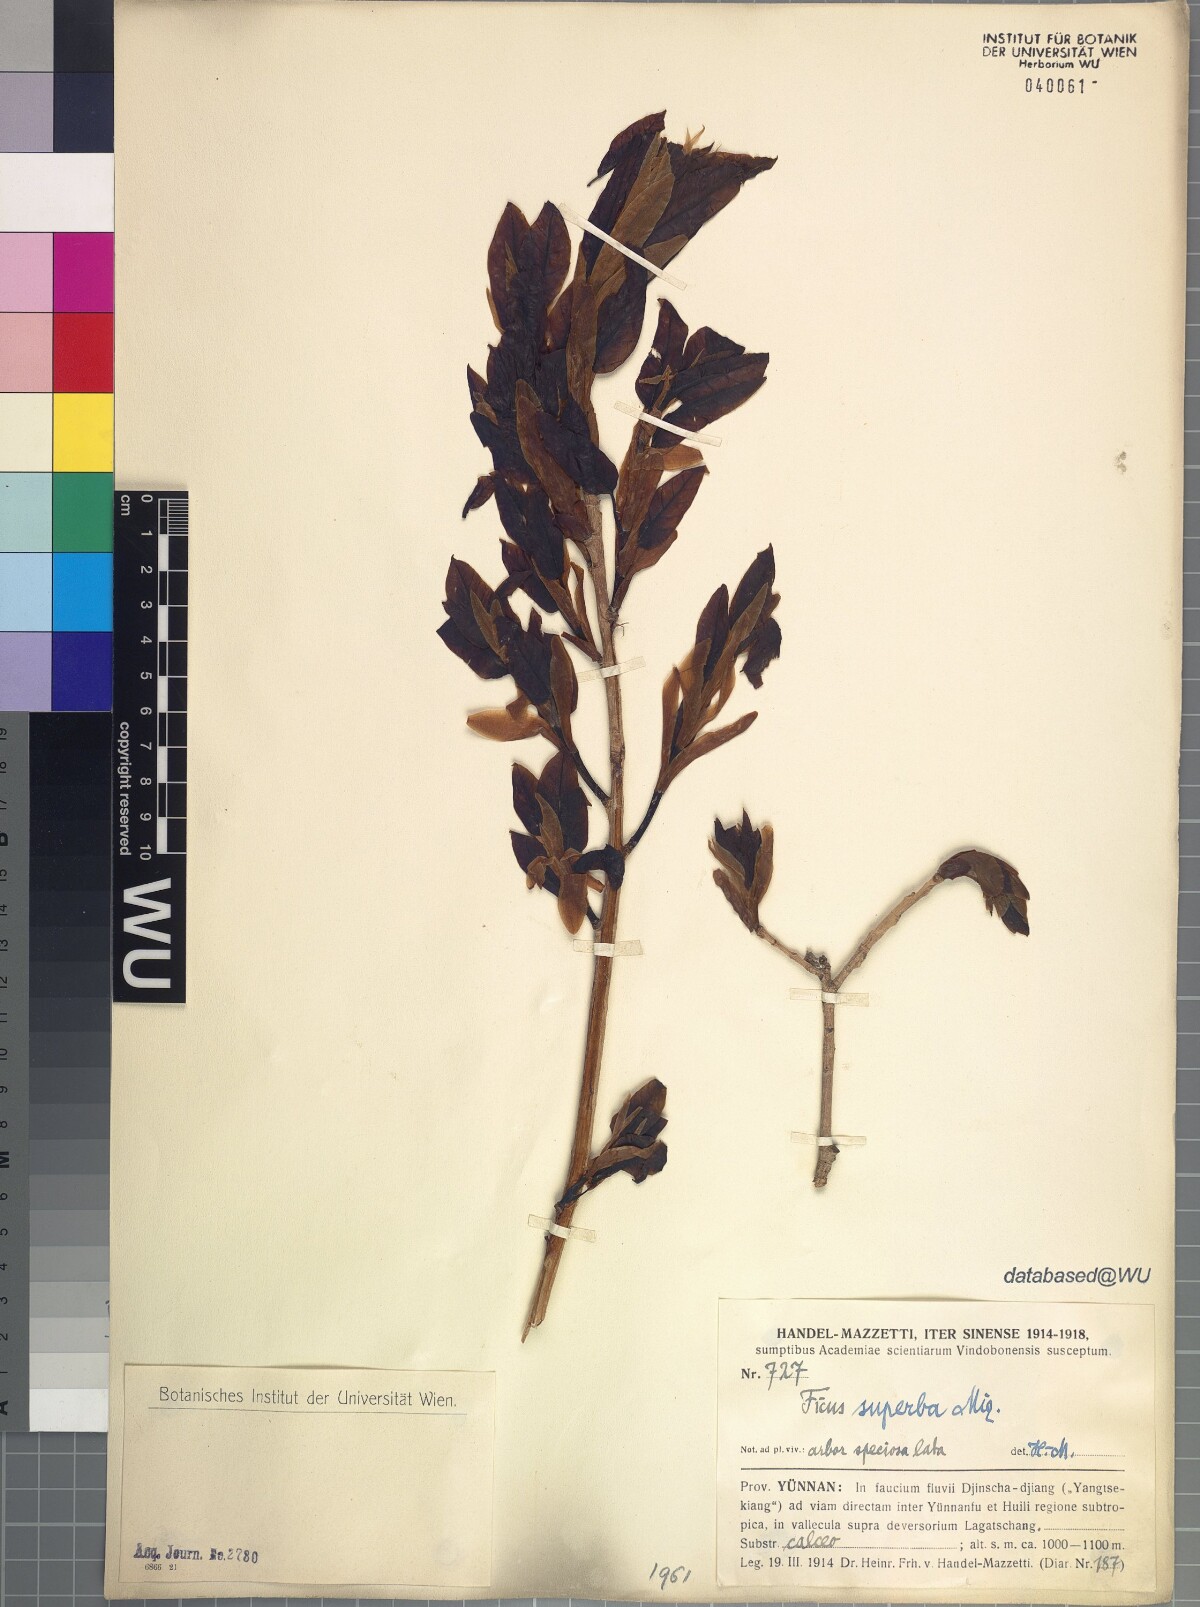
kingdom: Plantae
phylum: Tracheophyta
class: Magnoliopsida
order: Rosales
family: Moraceae
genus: Ficus
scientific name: Ficus superba
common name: Cedar fig
